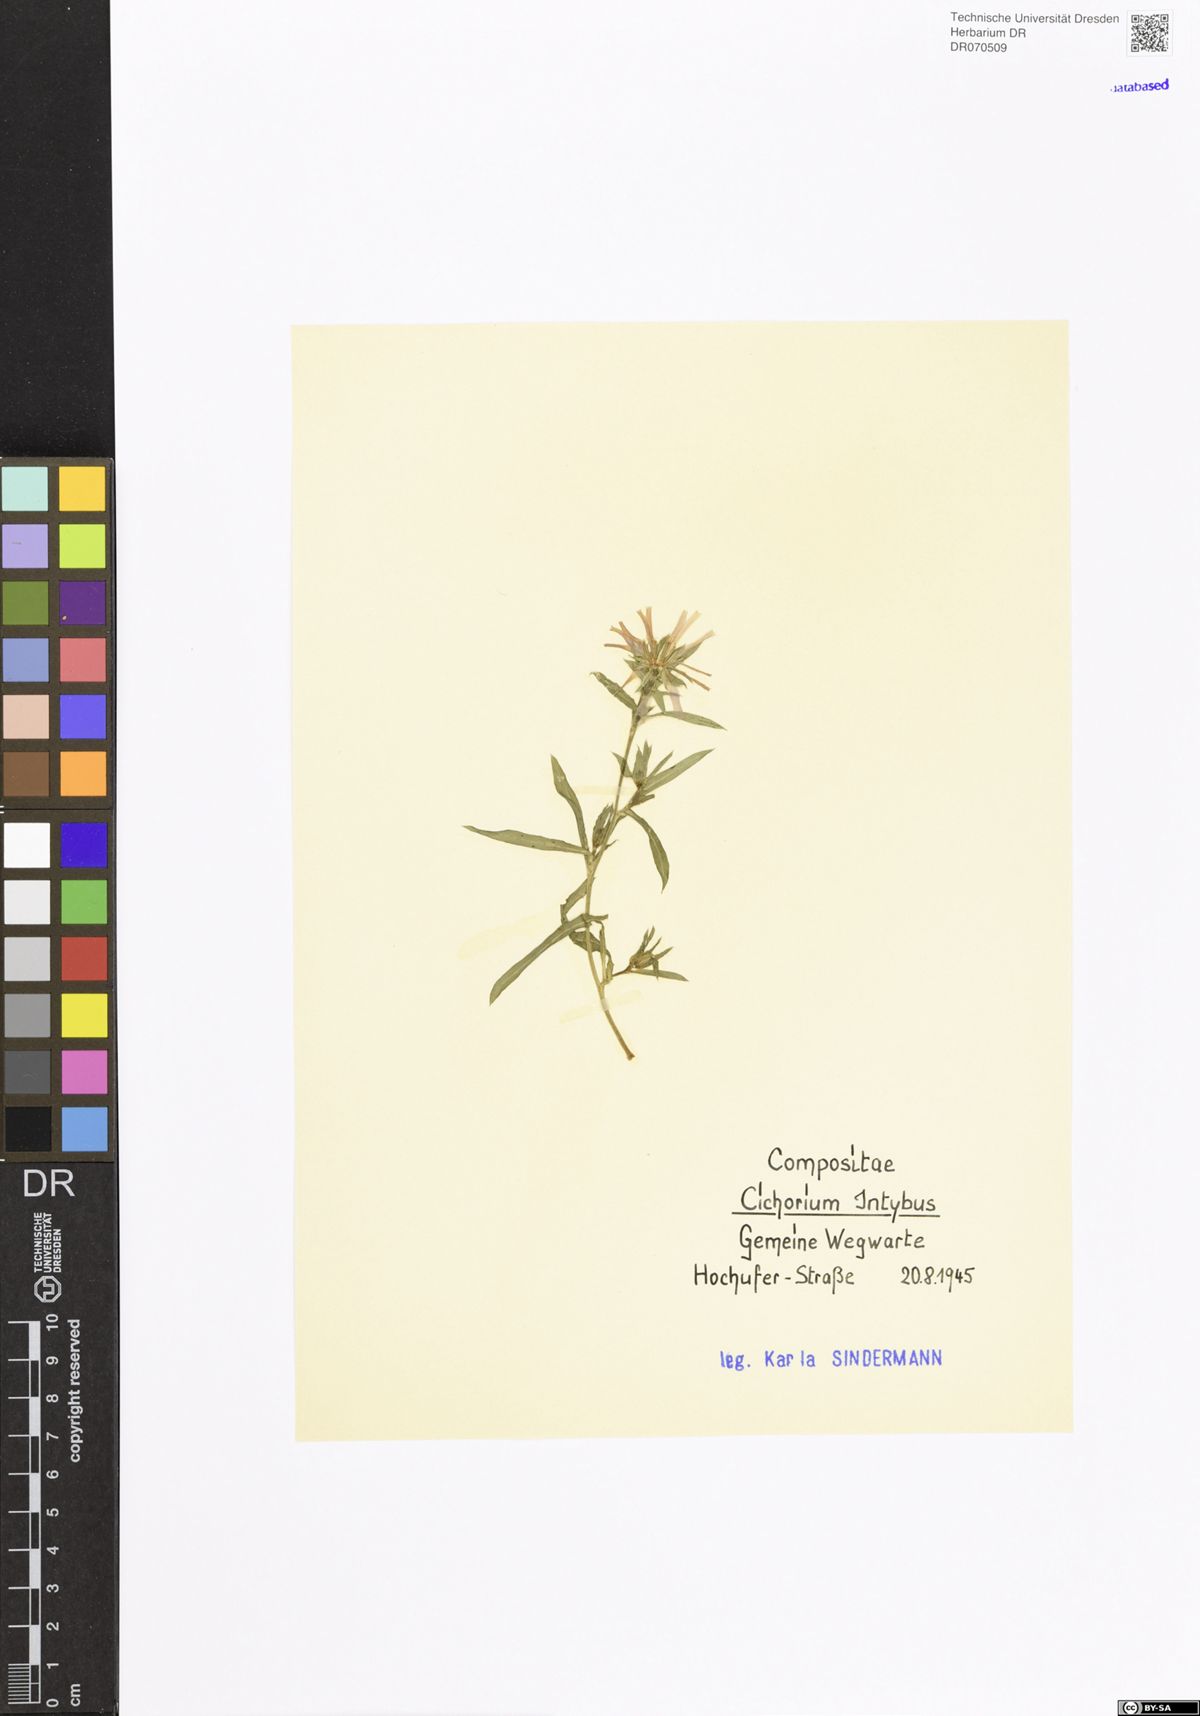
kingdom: Plantae
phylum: Tracheophyta
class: Magnoliopsida
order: Asterales
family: Asteraceae
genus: Cichorium
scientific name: Cichorium intybus
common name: Chicory
